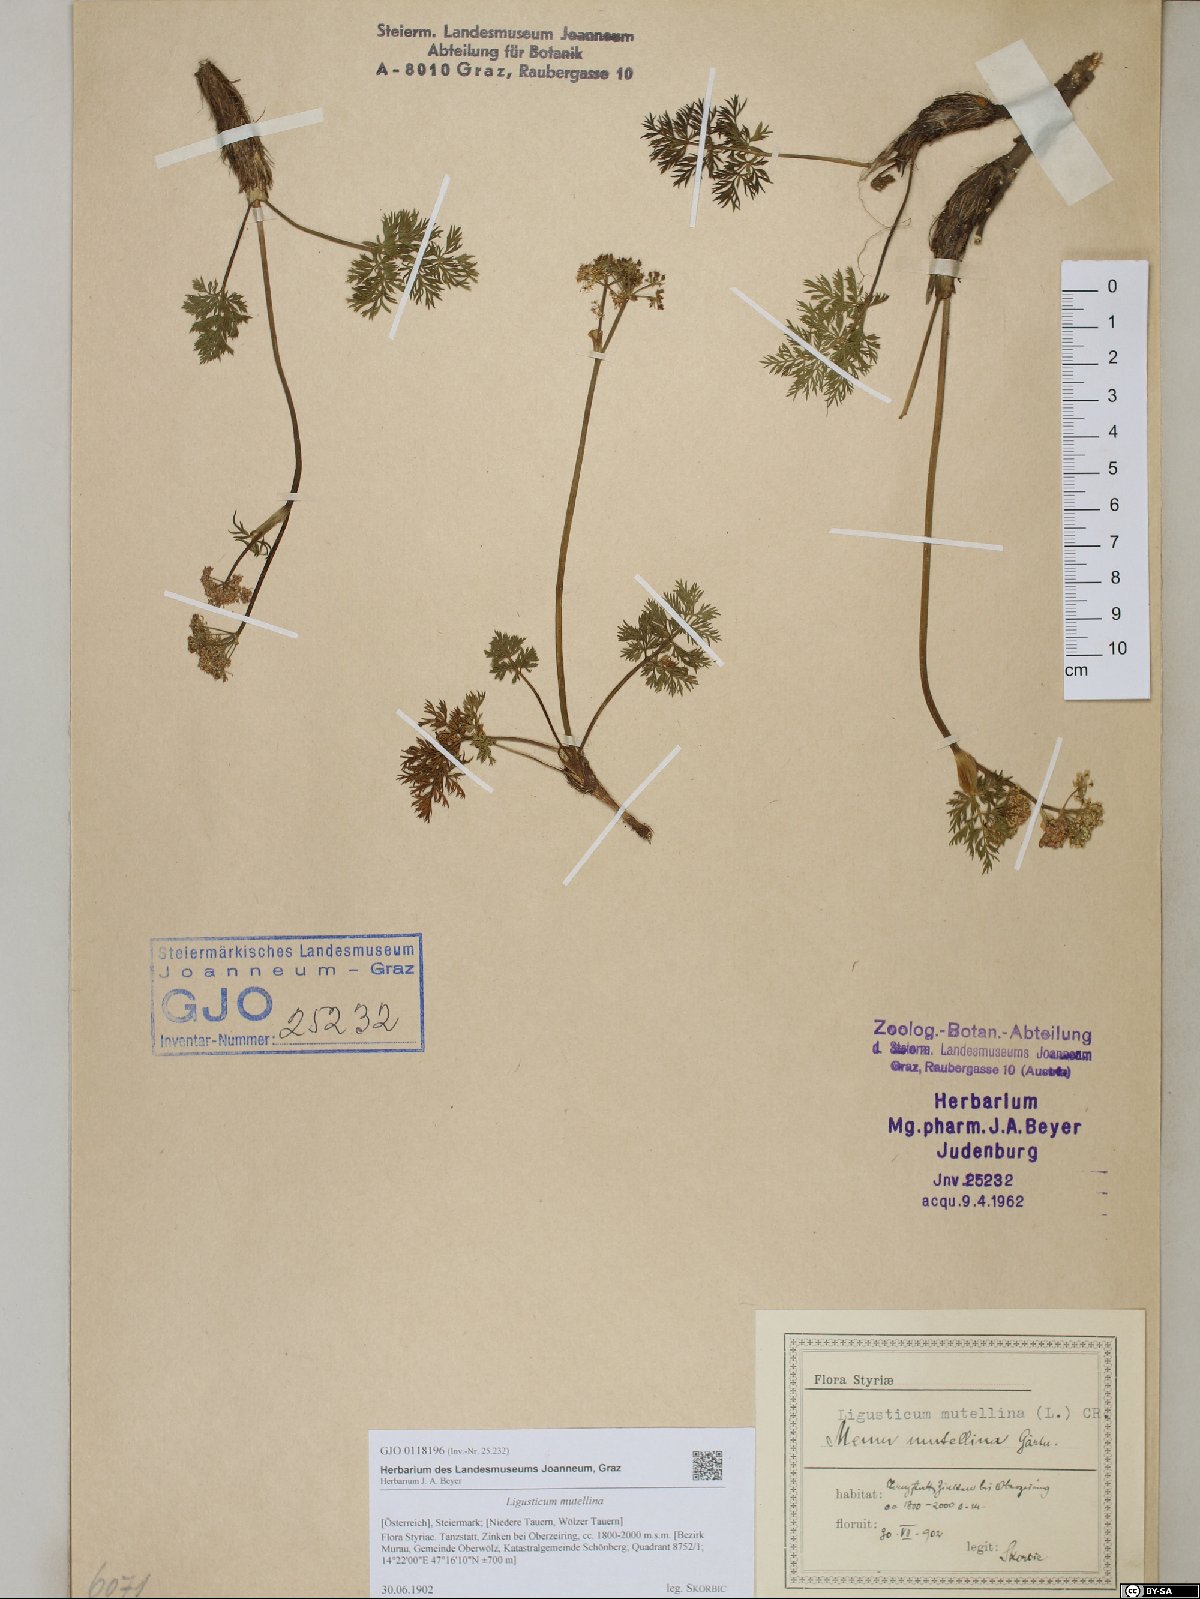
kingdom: Plantae
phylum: Tracheophyta
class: Magnoliopsida
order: Apiales
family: Apiaceae
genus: Mutellina
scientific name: Mutellina adonidifolia
